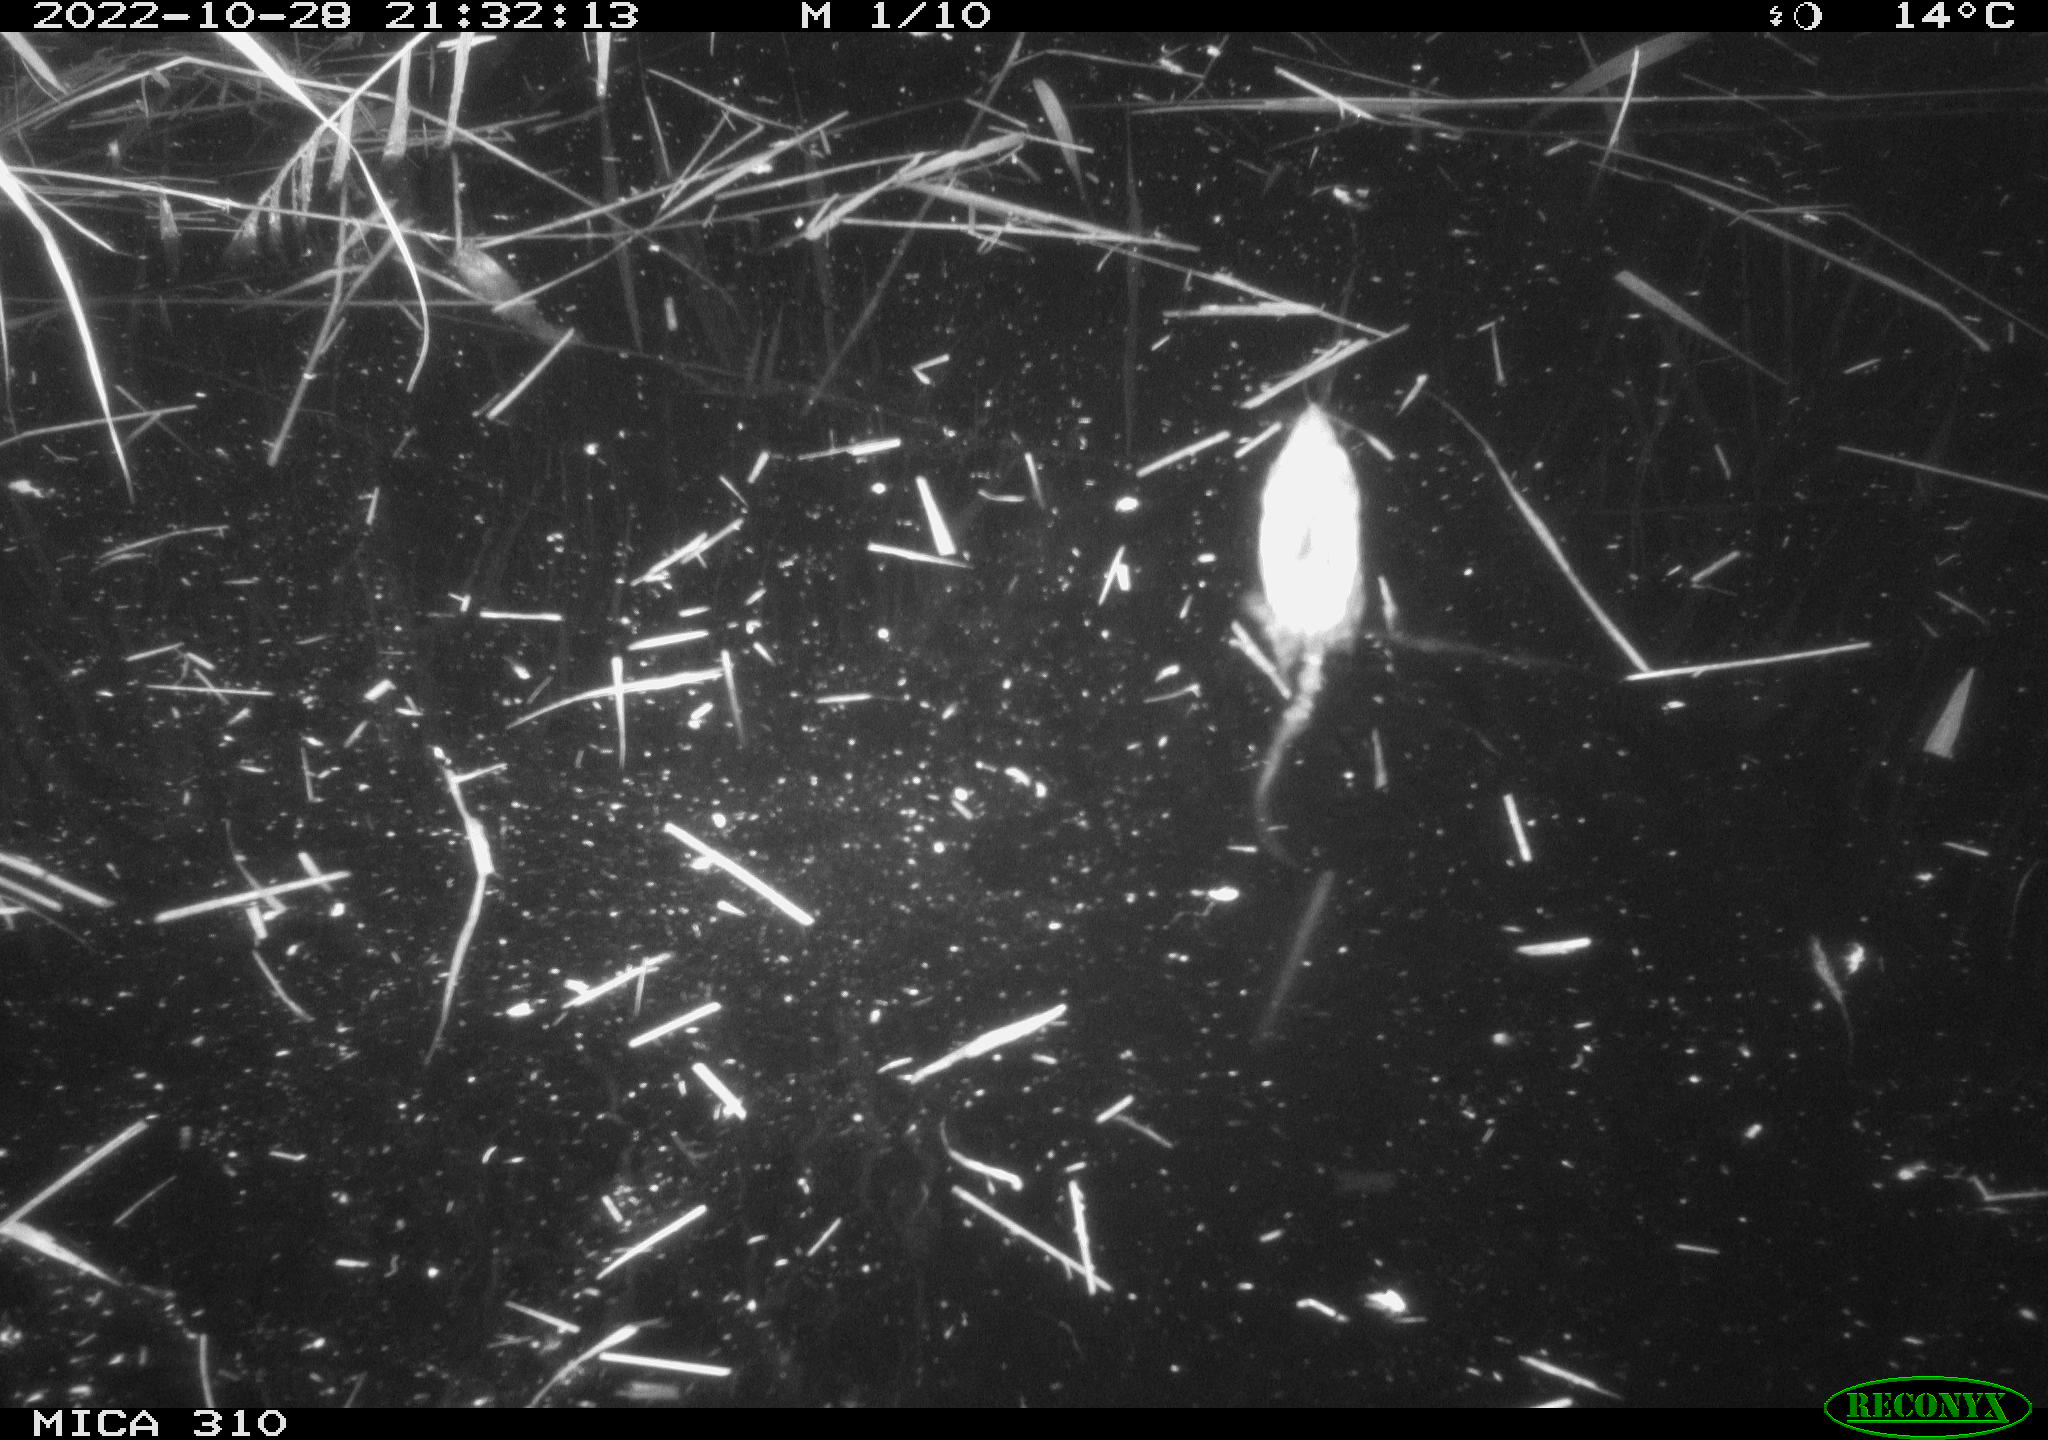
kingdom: Animalia
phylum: Chordata
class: Mammalia
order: Rodentia
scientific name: Rodentia
